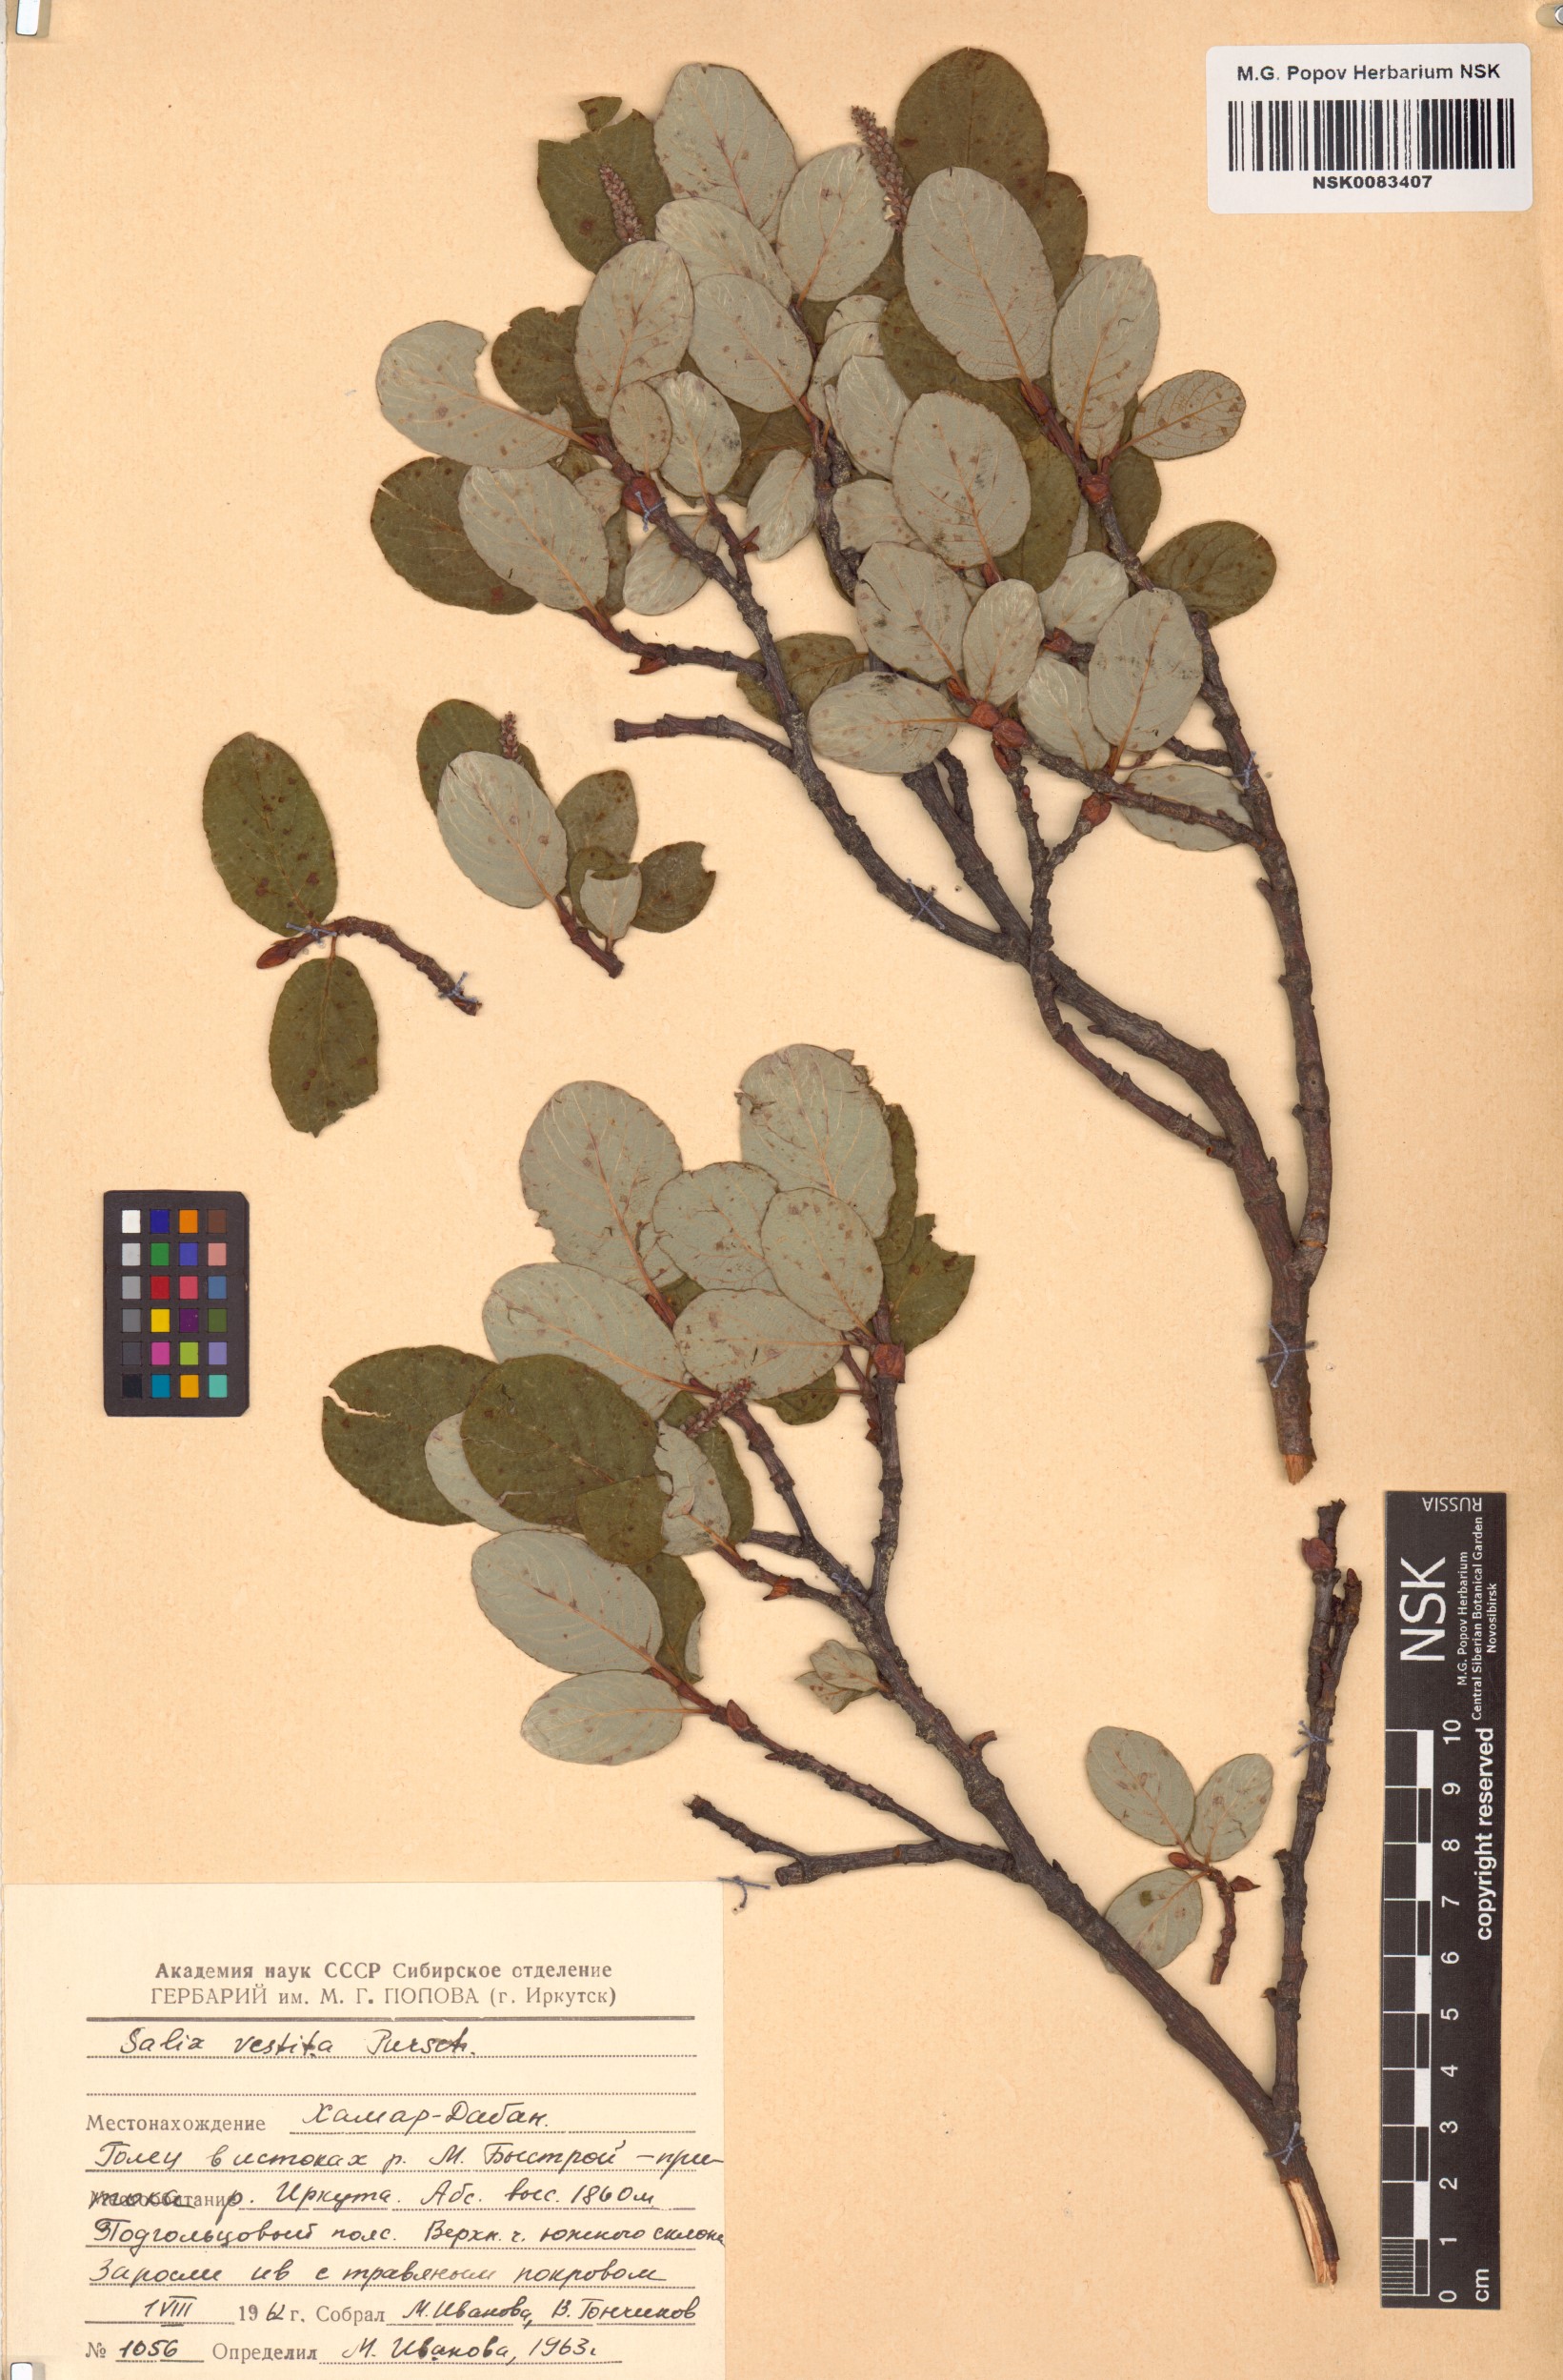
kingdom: Plantae
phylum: Tracheophyta
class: Magnoliopsida
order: Malpighiales
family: Salicaceae
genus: Salix
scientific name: Salix vestita
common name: Hairy willow
